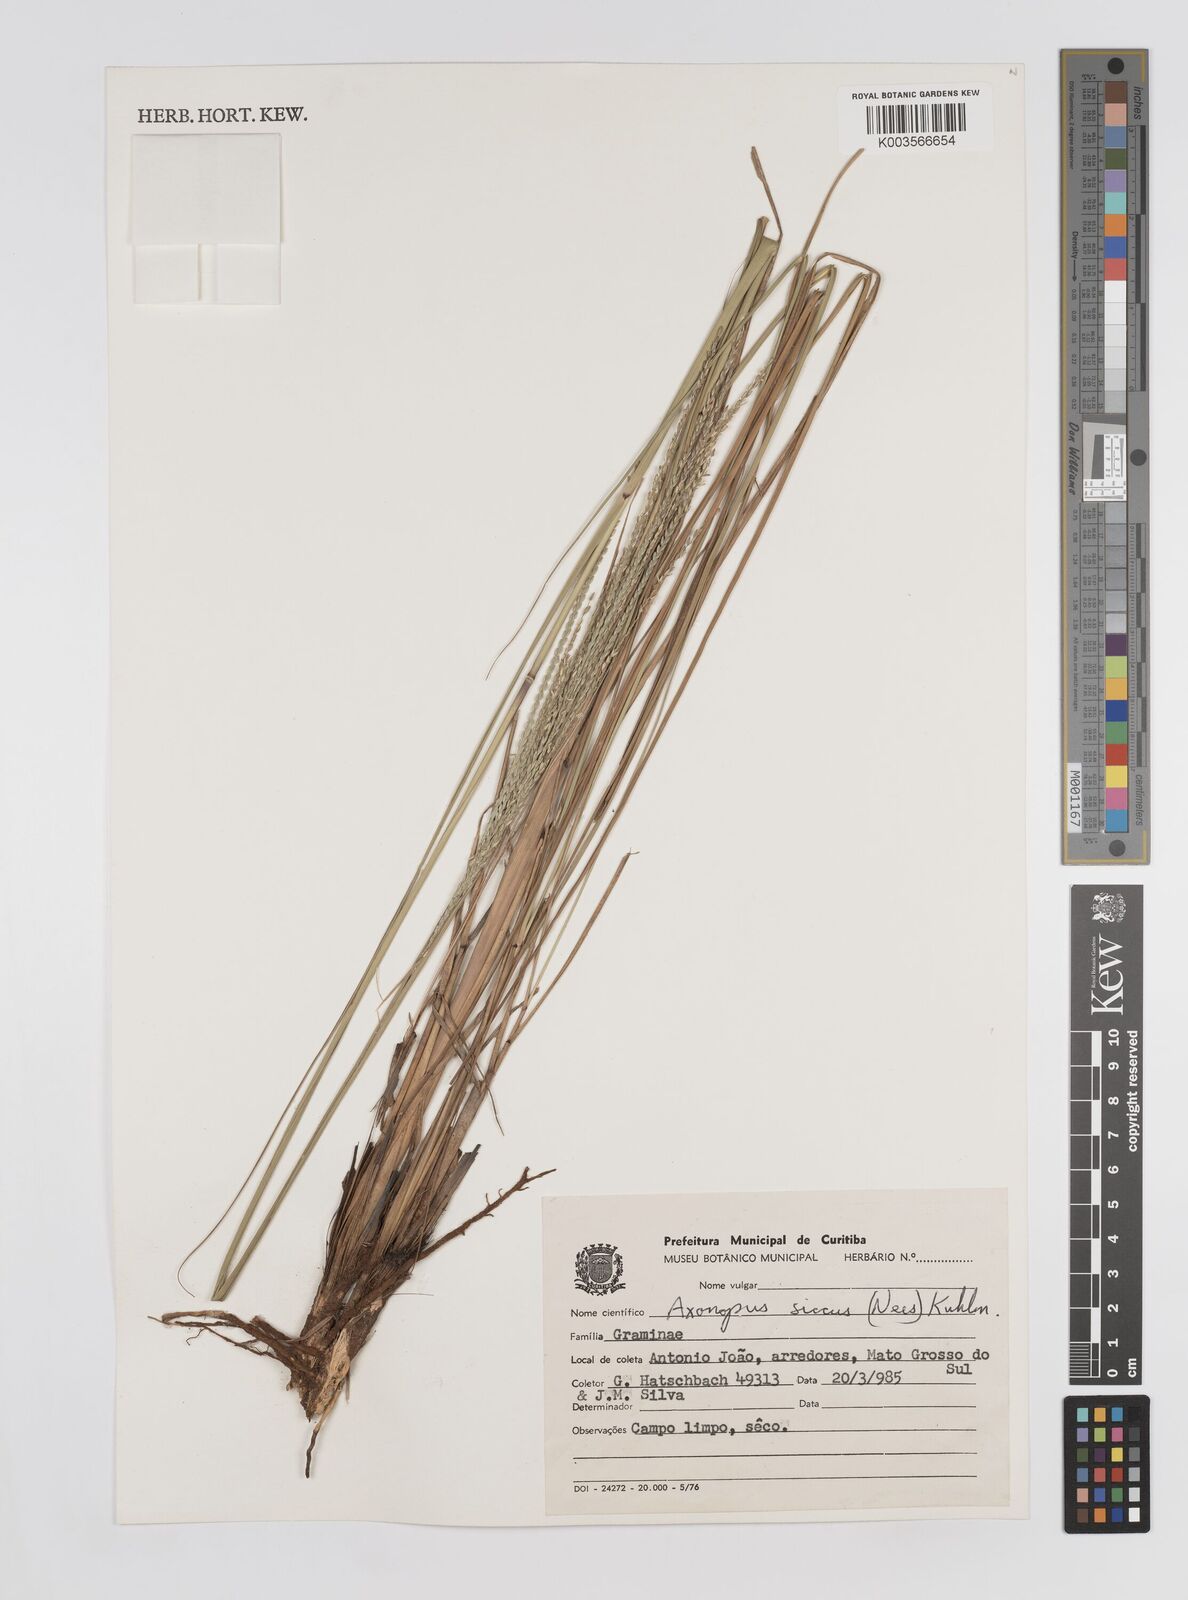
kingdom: Plantae
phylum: Tracheophyta
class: Liliopsida
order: Poales
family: Poaceae
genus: Axonopus
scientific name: Axonopus siccus
